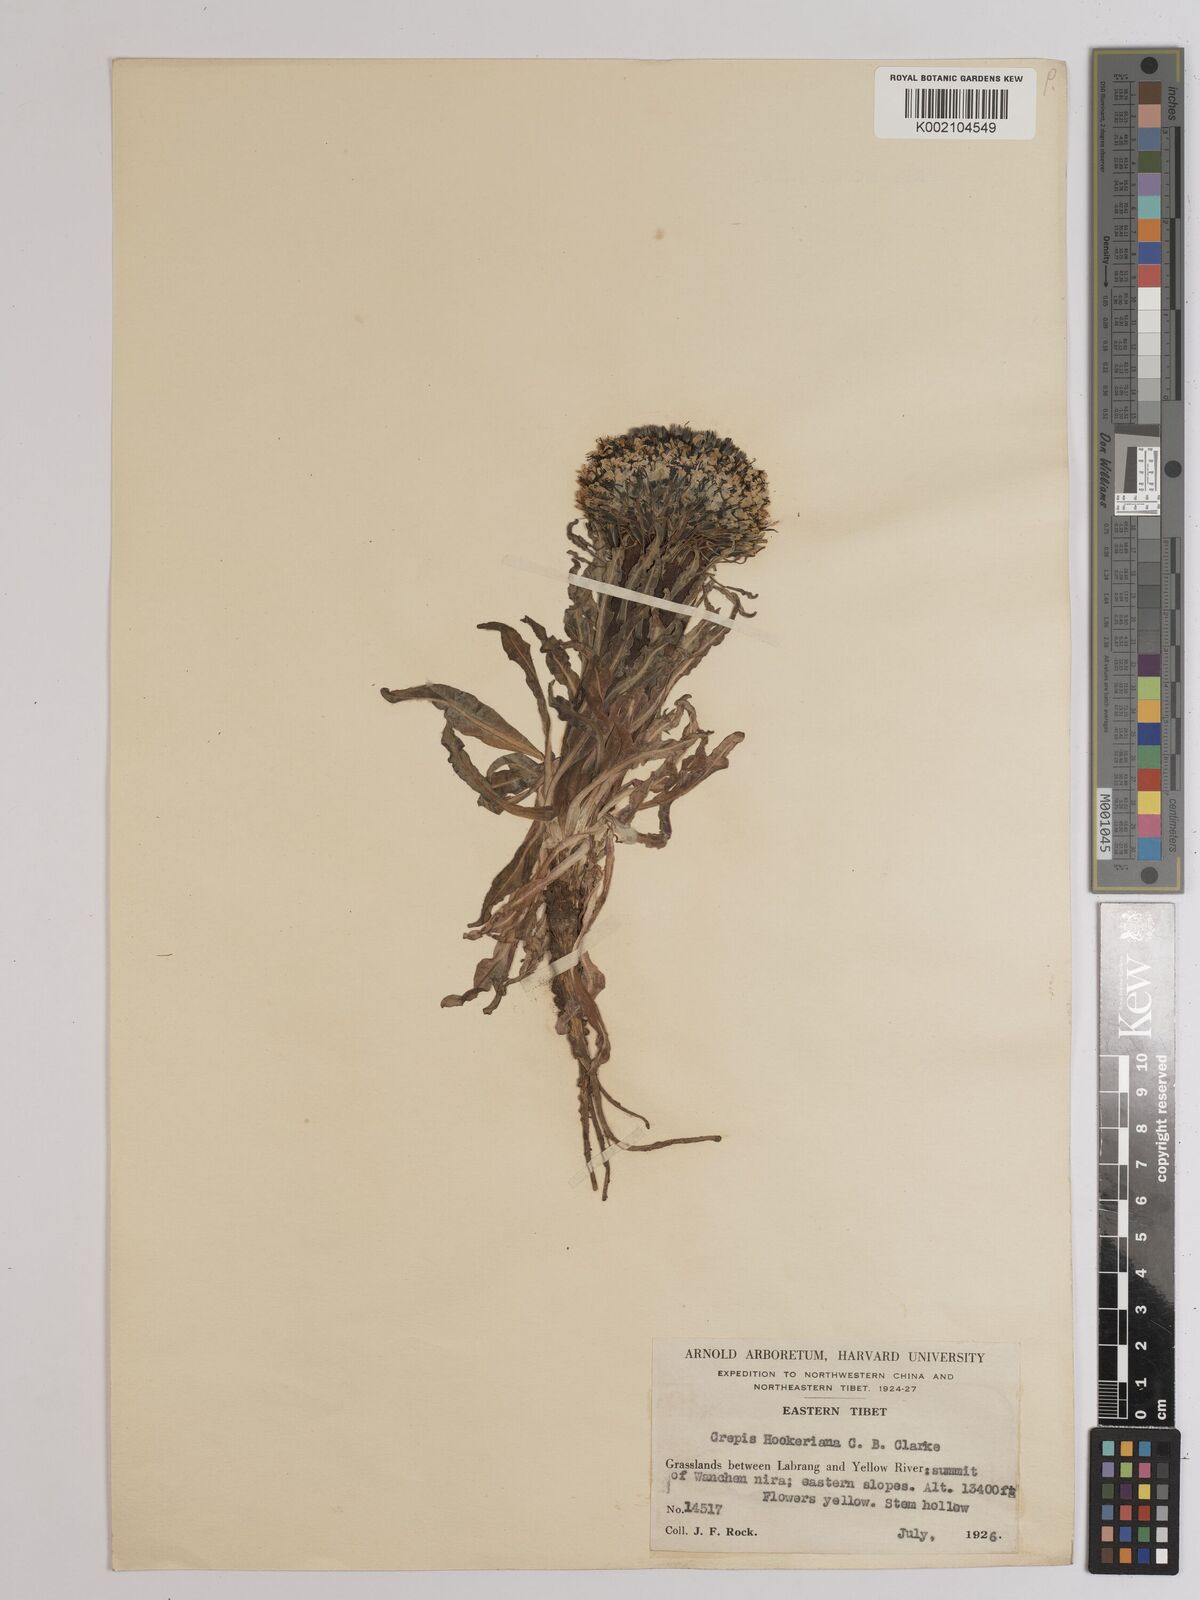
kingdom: Plantae
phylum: Tracheophyta
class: Magnoliopsida
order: Asterales
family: Asteraceae
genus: Soroseris
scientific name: Soroseris hookeriana
